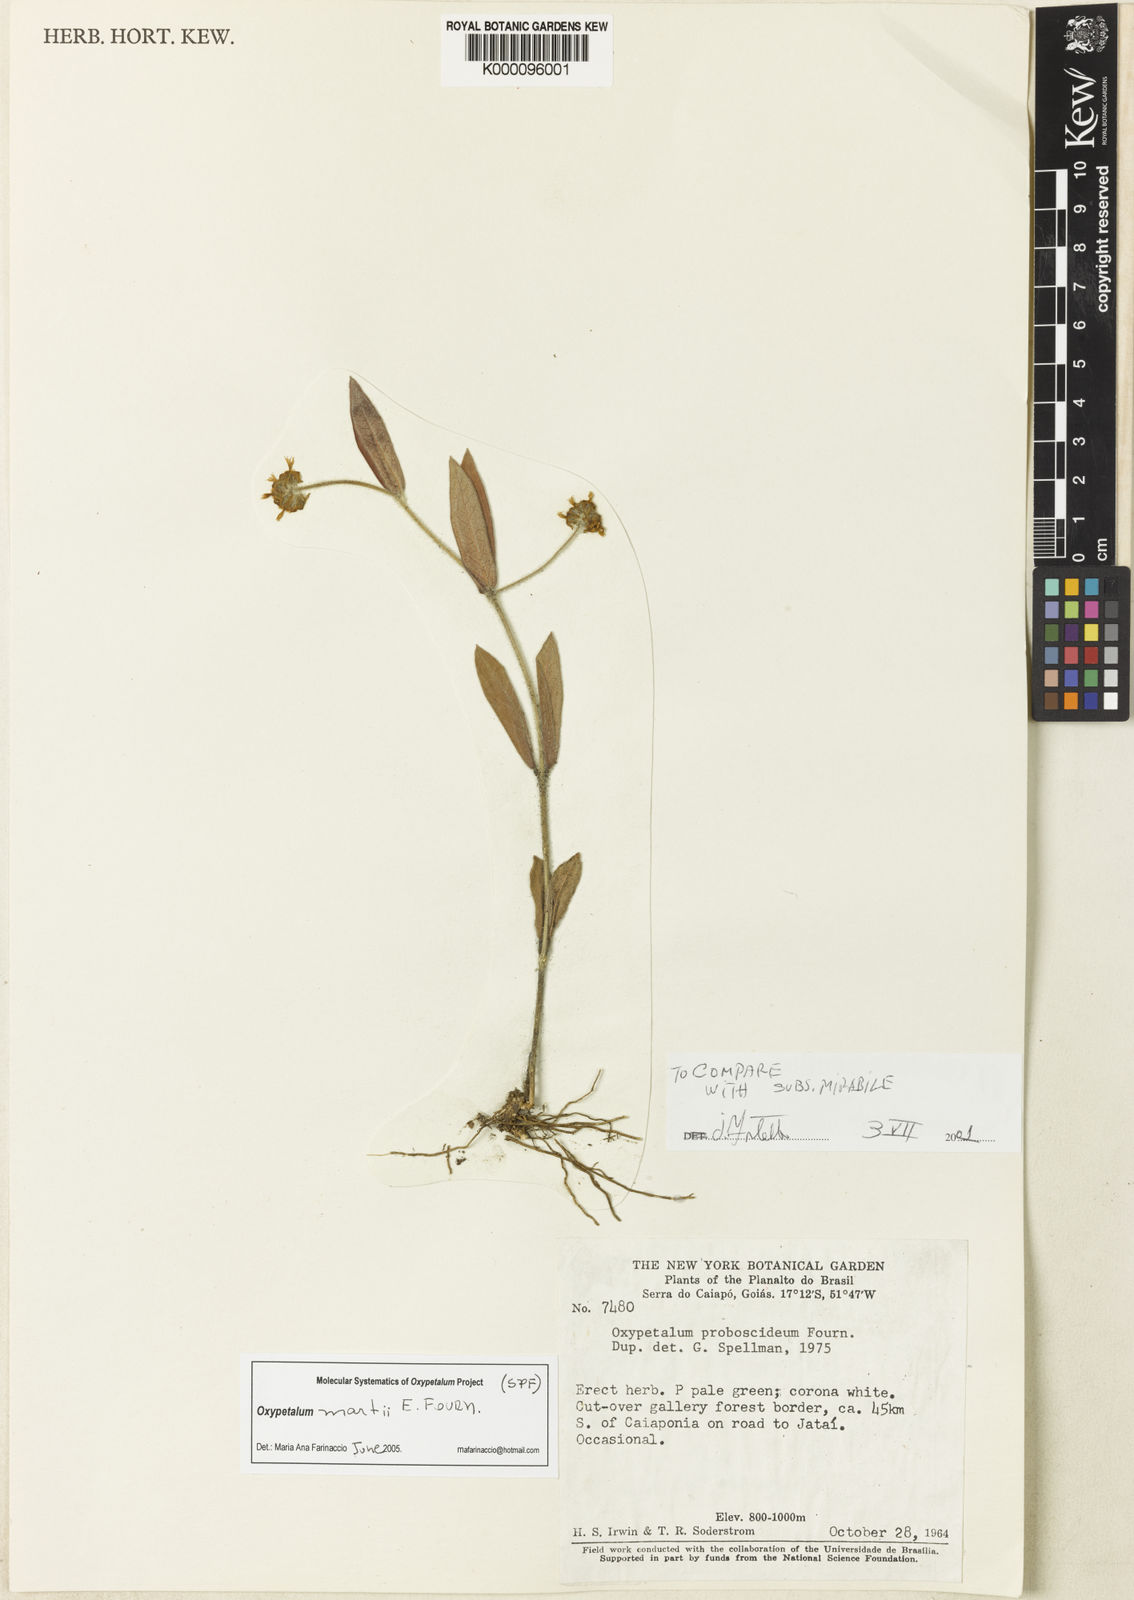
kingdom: Plantae
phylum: Tracheophyta
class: Magnoliopsida
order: Gentianales
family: Apocynaceae
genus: Oxypetalum
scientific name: Oxypetalum martii
